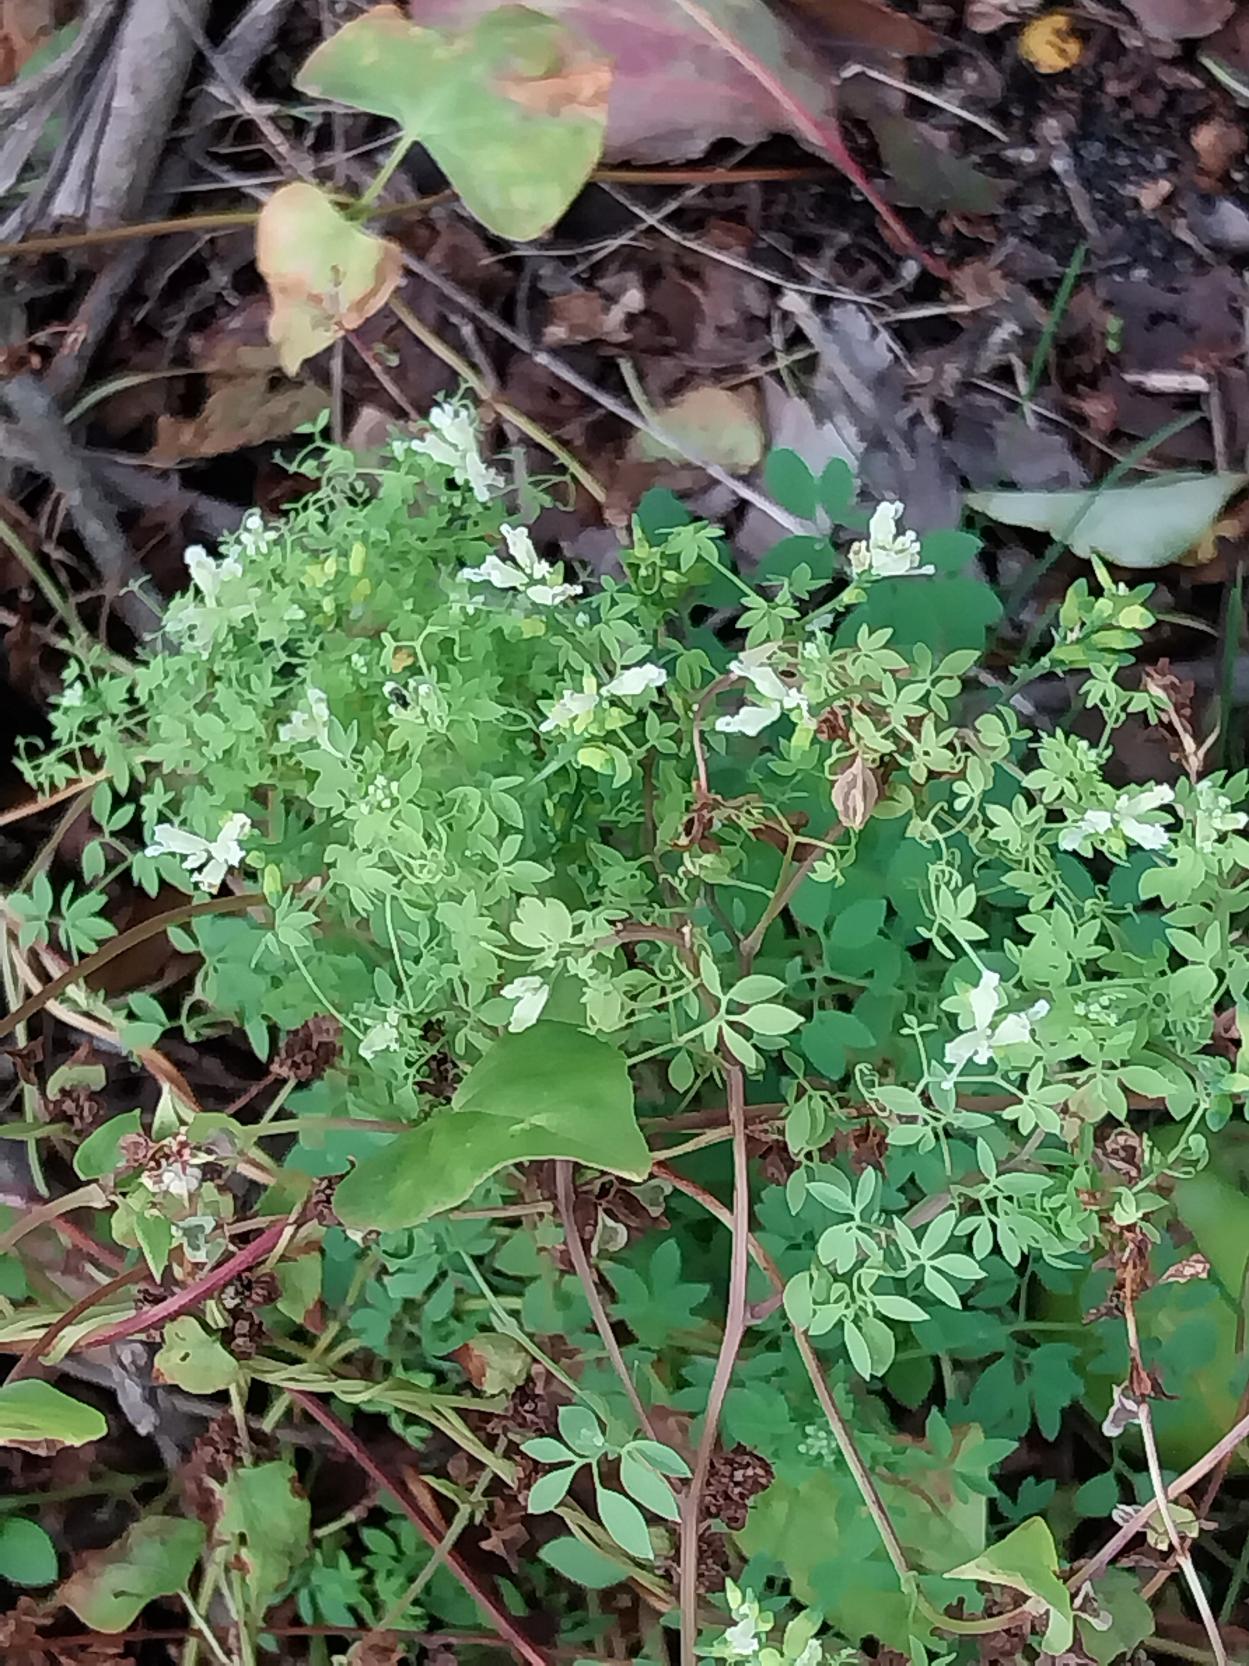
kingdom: Plantae
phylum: Tracheophyta
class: Magnoliopsida
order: Ranunculales
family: Papaveraceae
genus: Ceratocapnos
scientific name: Ceratocapnos claviculata
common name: Klatrende lærkespore
